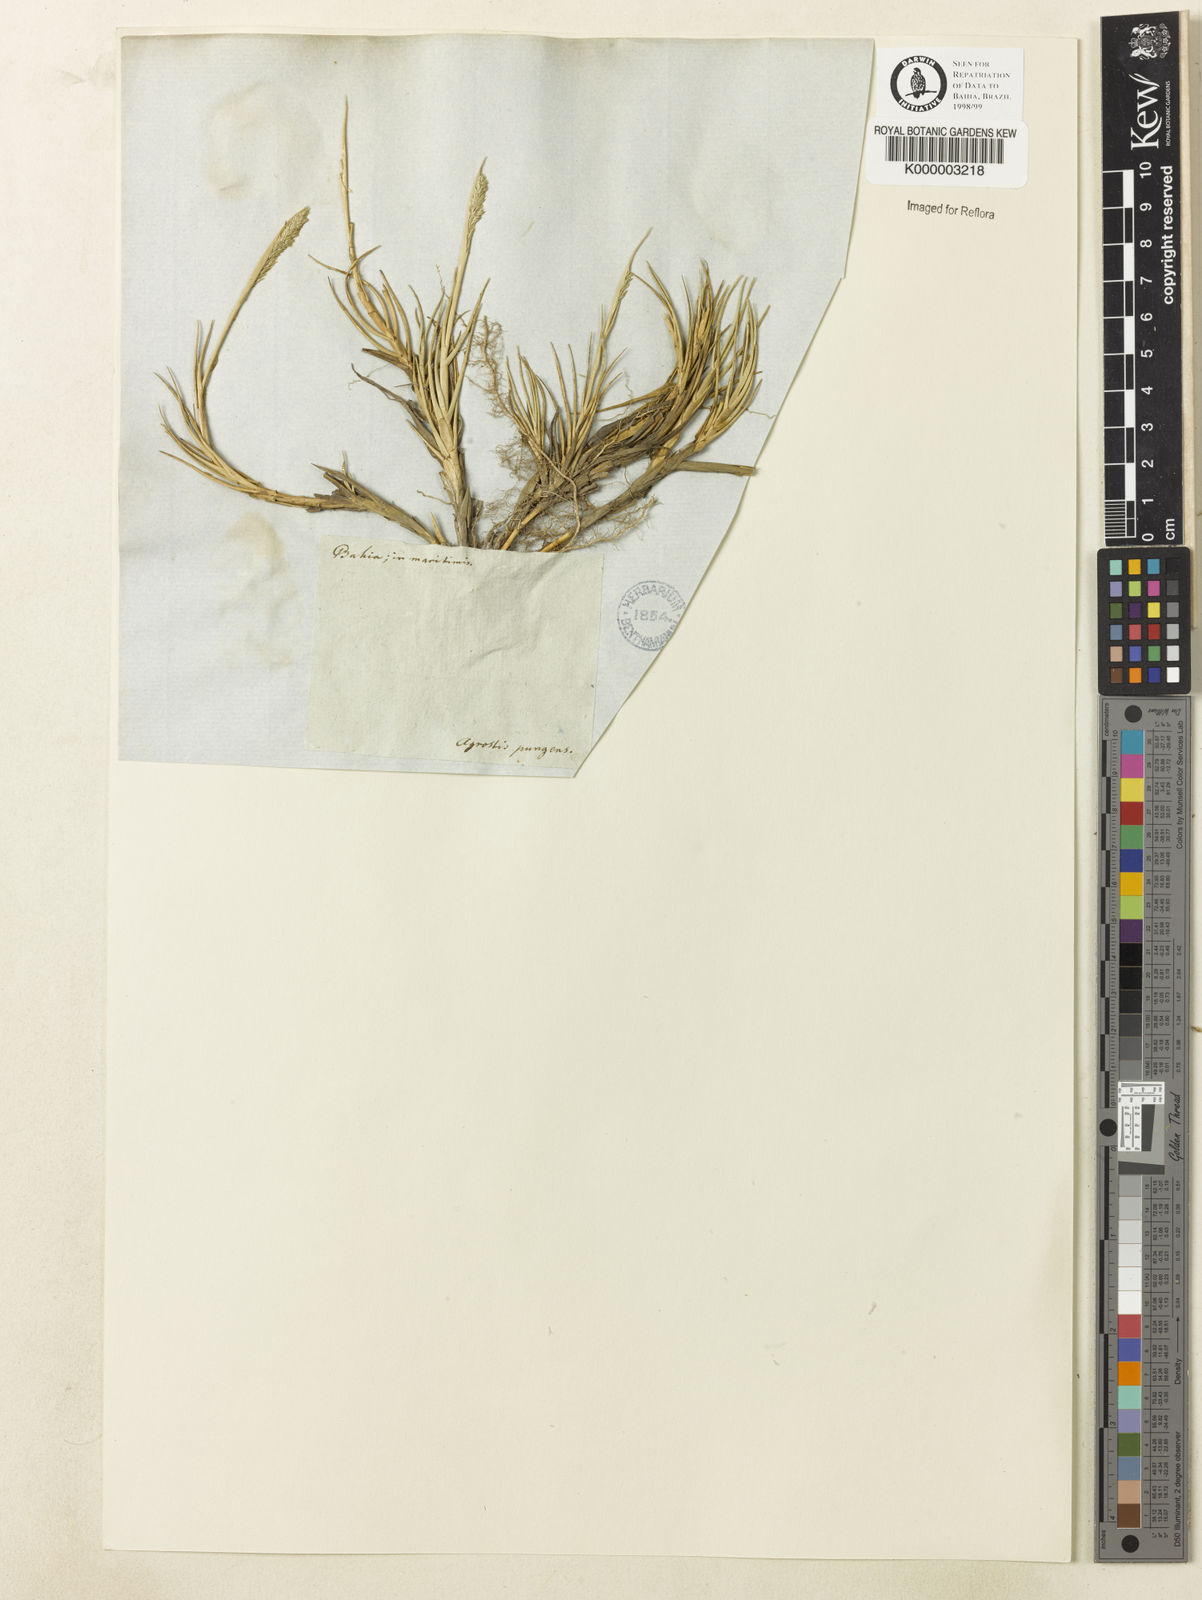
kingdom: Plantae
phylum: Tracheophyta
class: Liliopsida
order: Poales
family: Poaceae
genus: Sporobolus
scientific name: Sporobolus virginicus
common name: Beach dropseed
